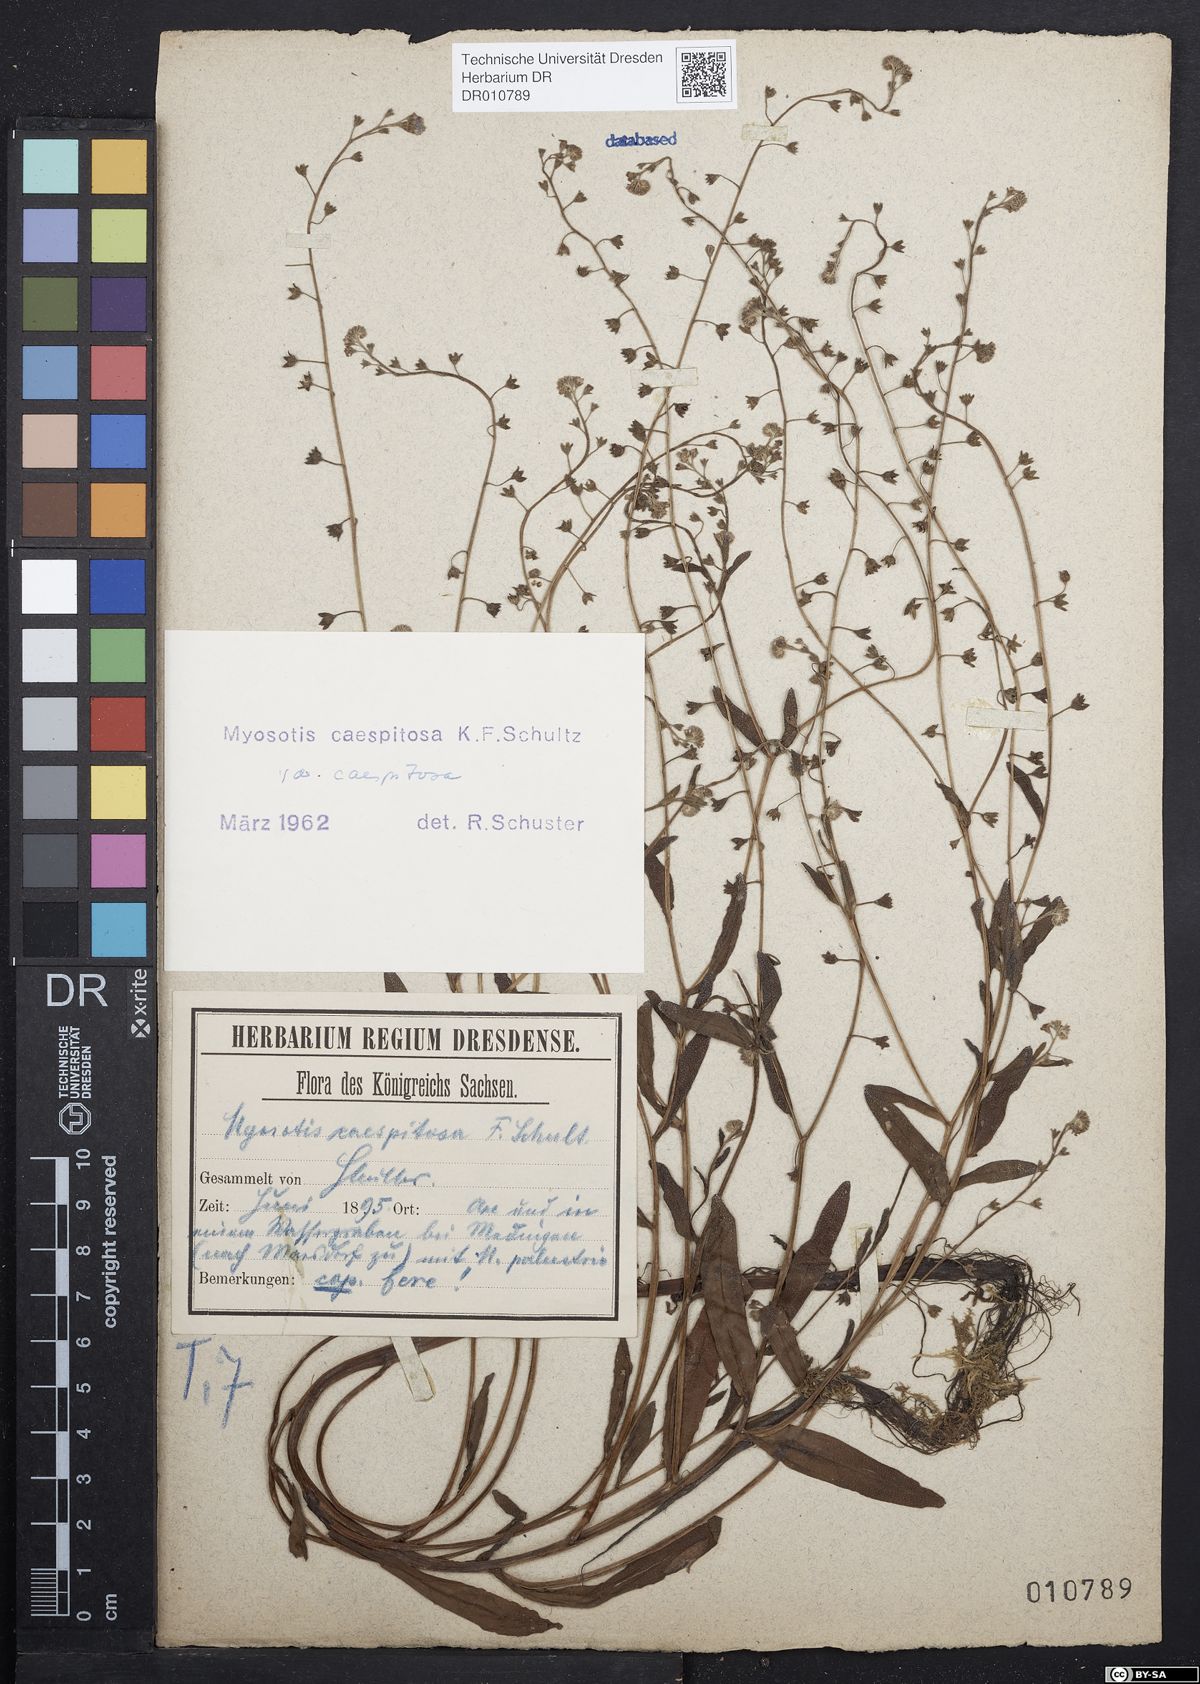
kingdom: Plantae
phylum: Tracheophyta
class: Magnoliopsida
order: Boraginales
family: Boraginaceae
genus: Myosotis
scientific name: Myosotis laxa
